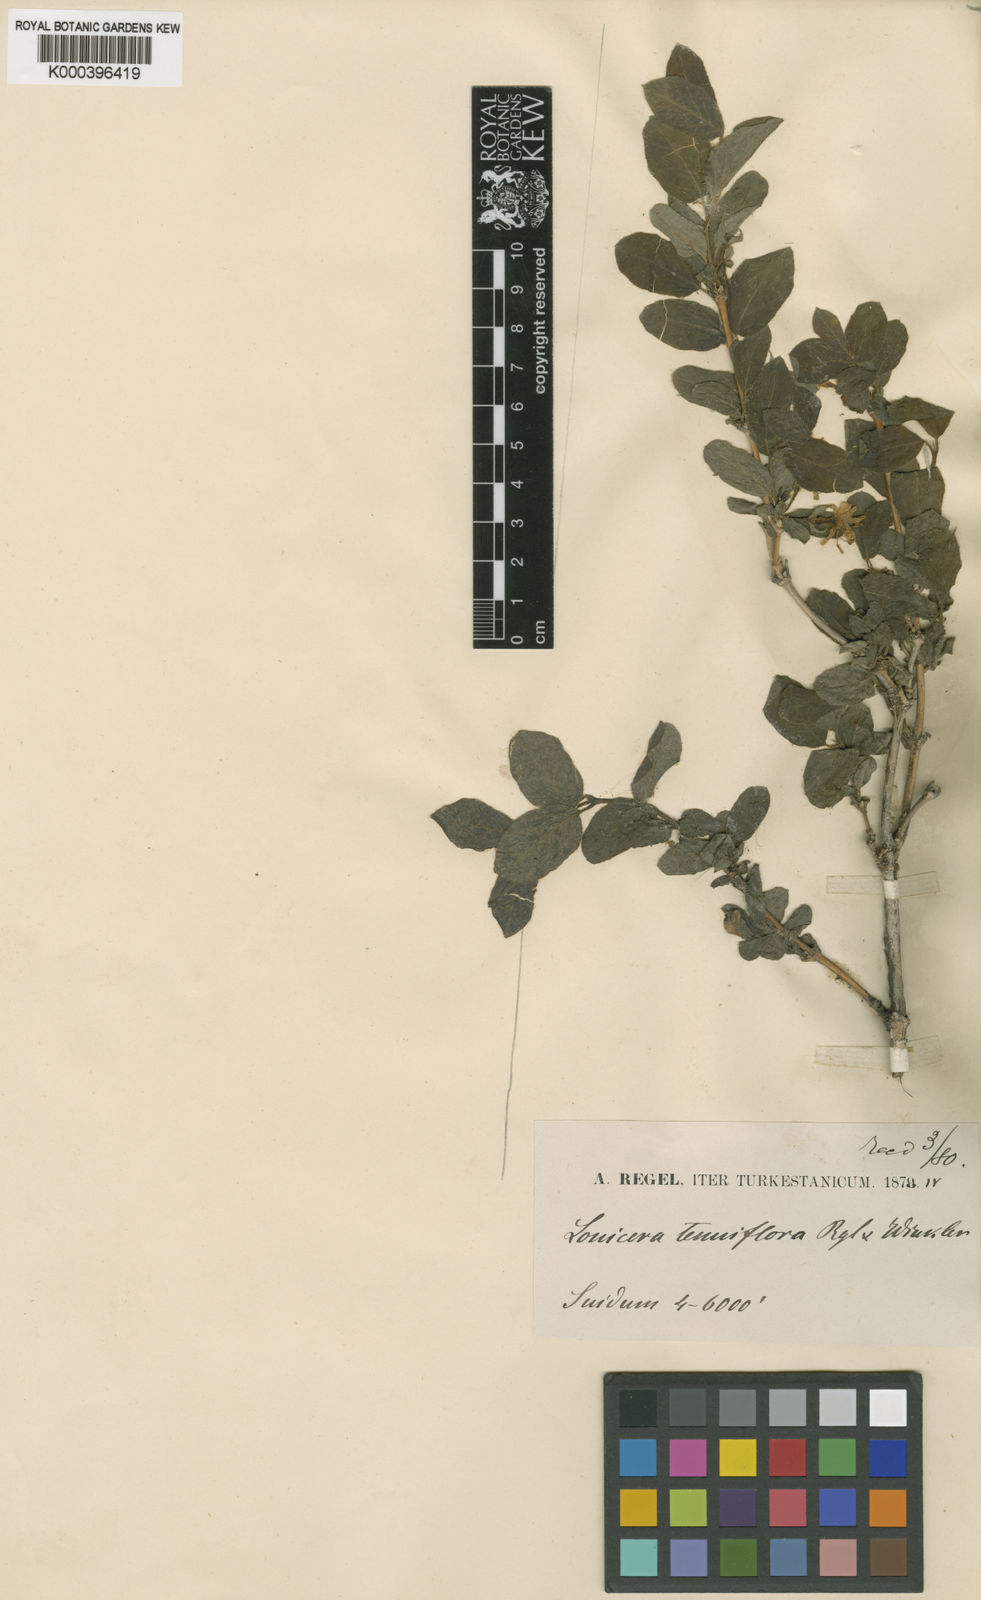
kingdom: Plantae
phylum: Tracheophyta
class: Magnoliopsida
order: Dipsacales
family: Caprifoliaceae
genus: Lonicera
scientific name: Lonicera altmannii
